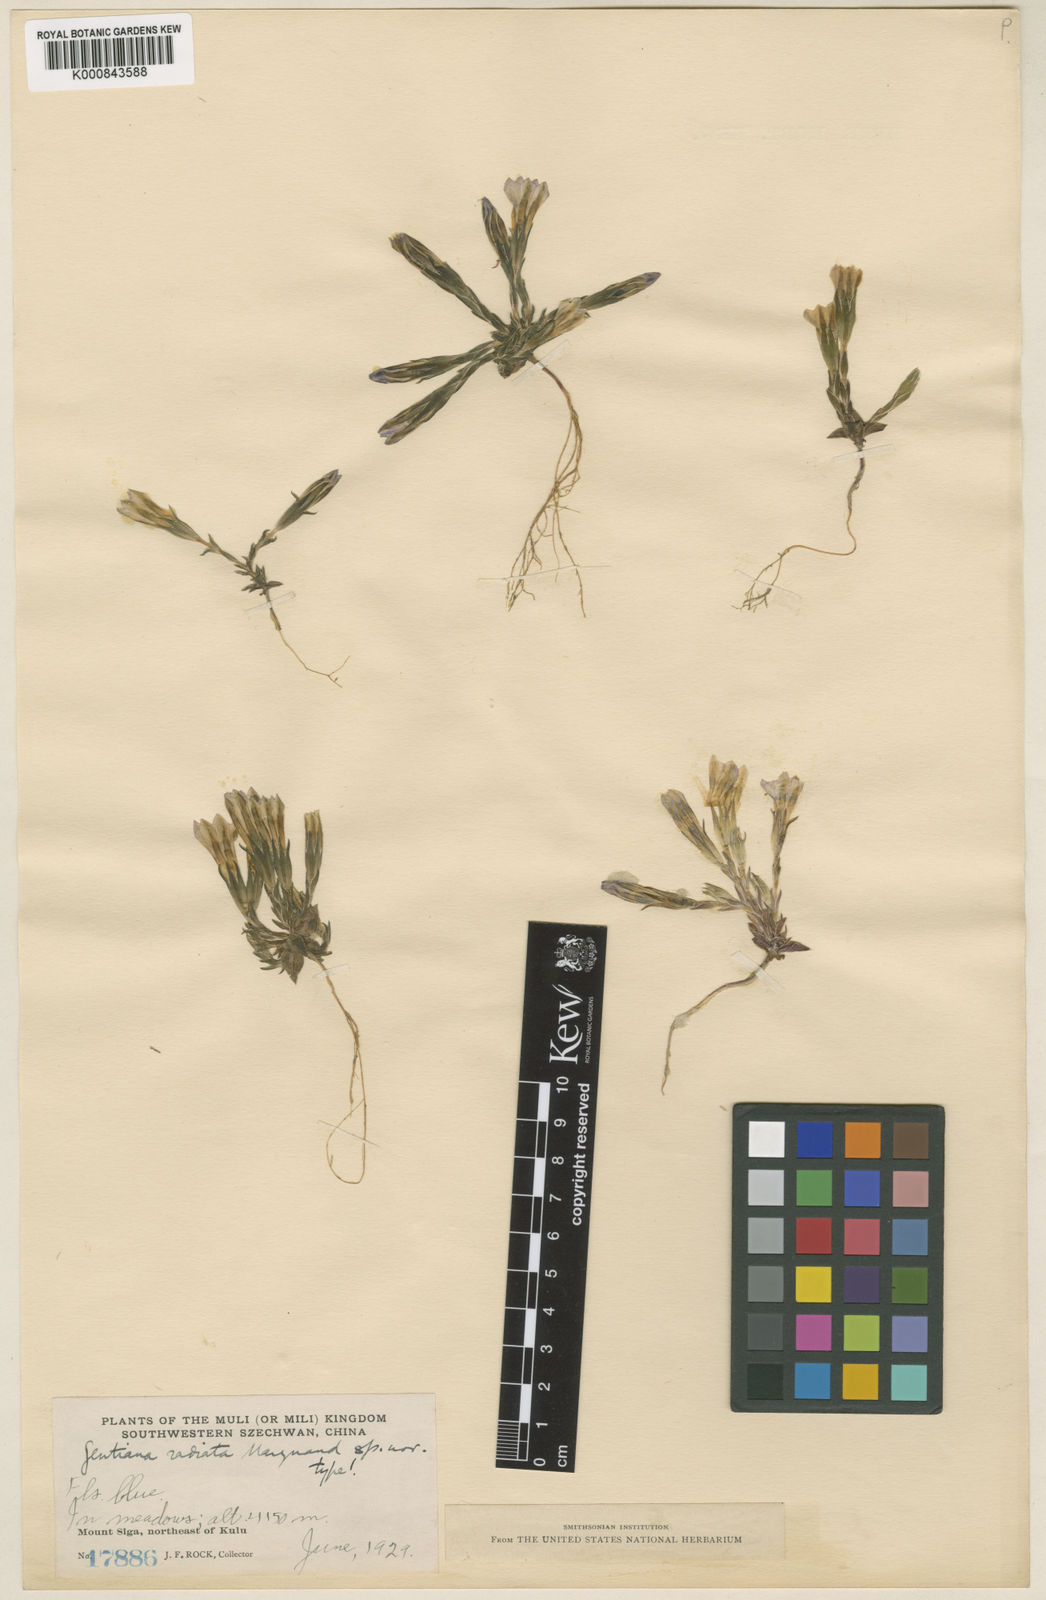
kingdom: Plantae
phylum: Tracheophyta
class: Magnoliopsida
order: Gentianales
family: Gentianaceae
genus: Gentiana
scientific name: Gentiana radiata
